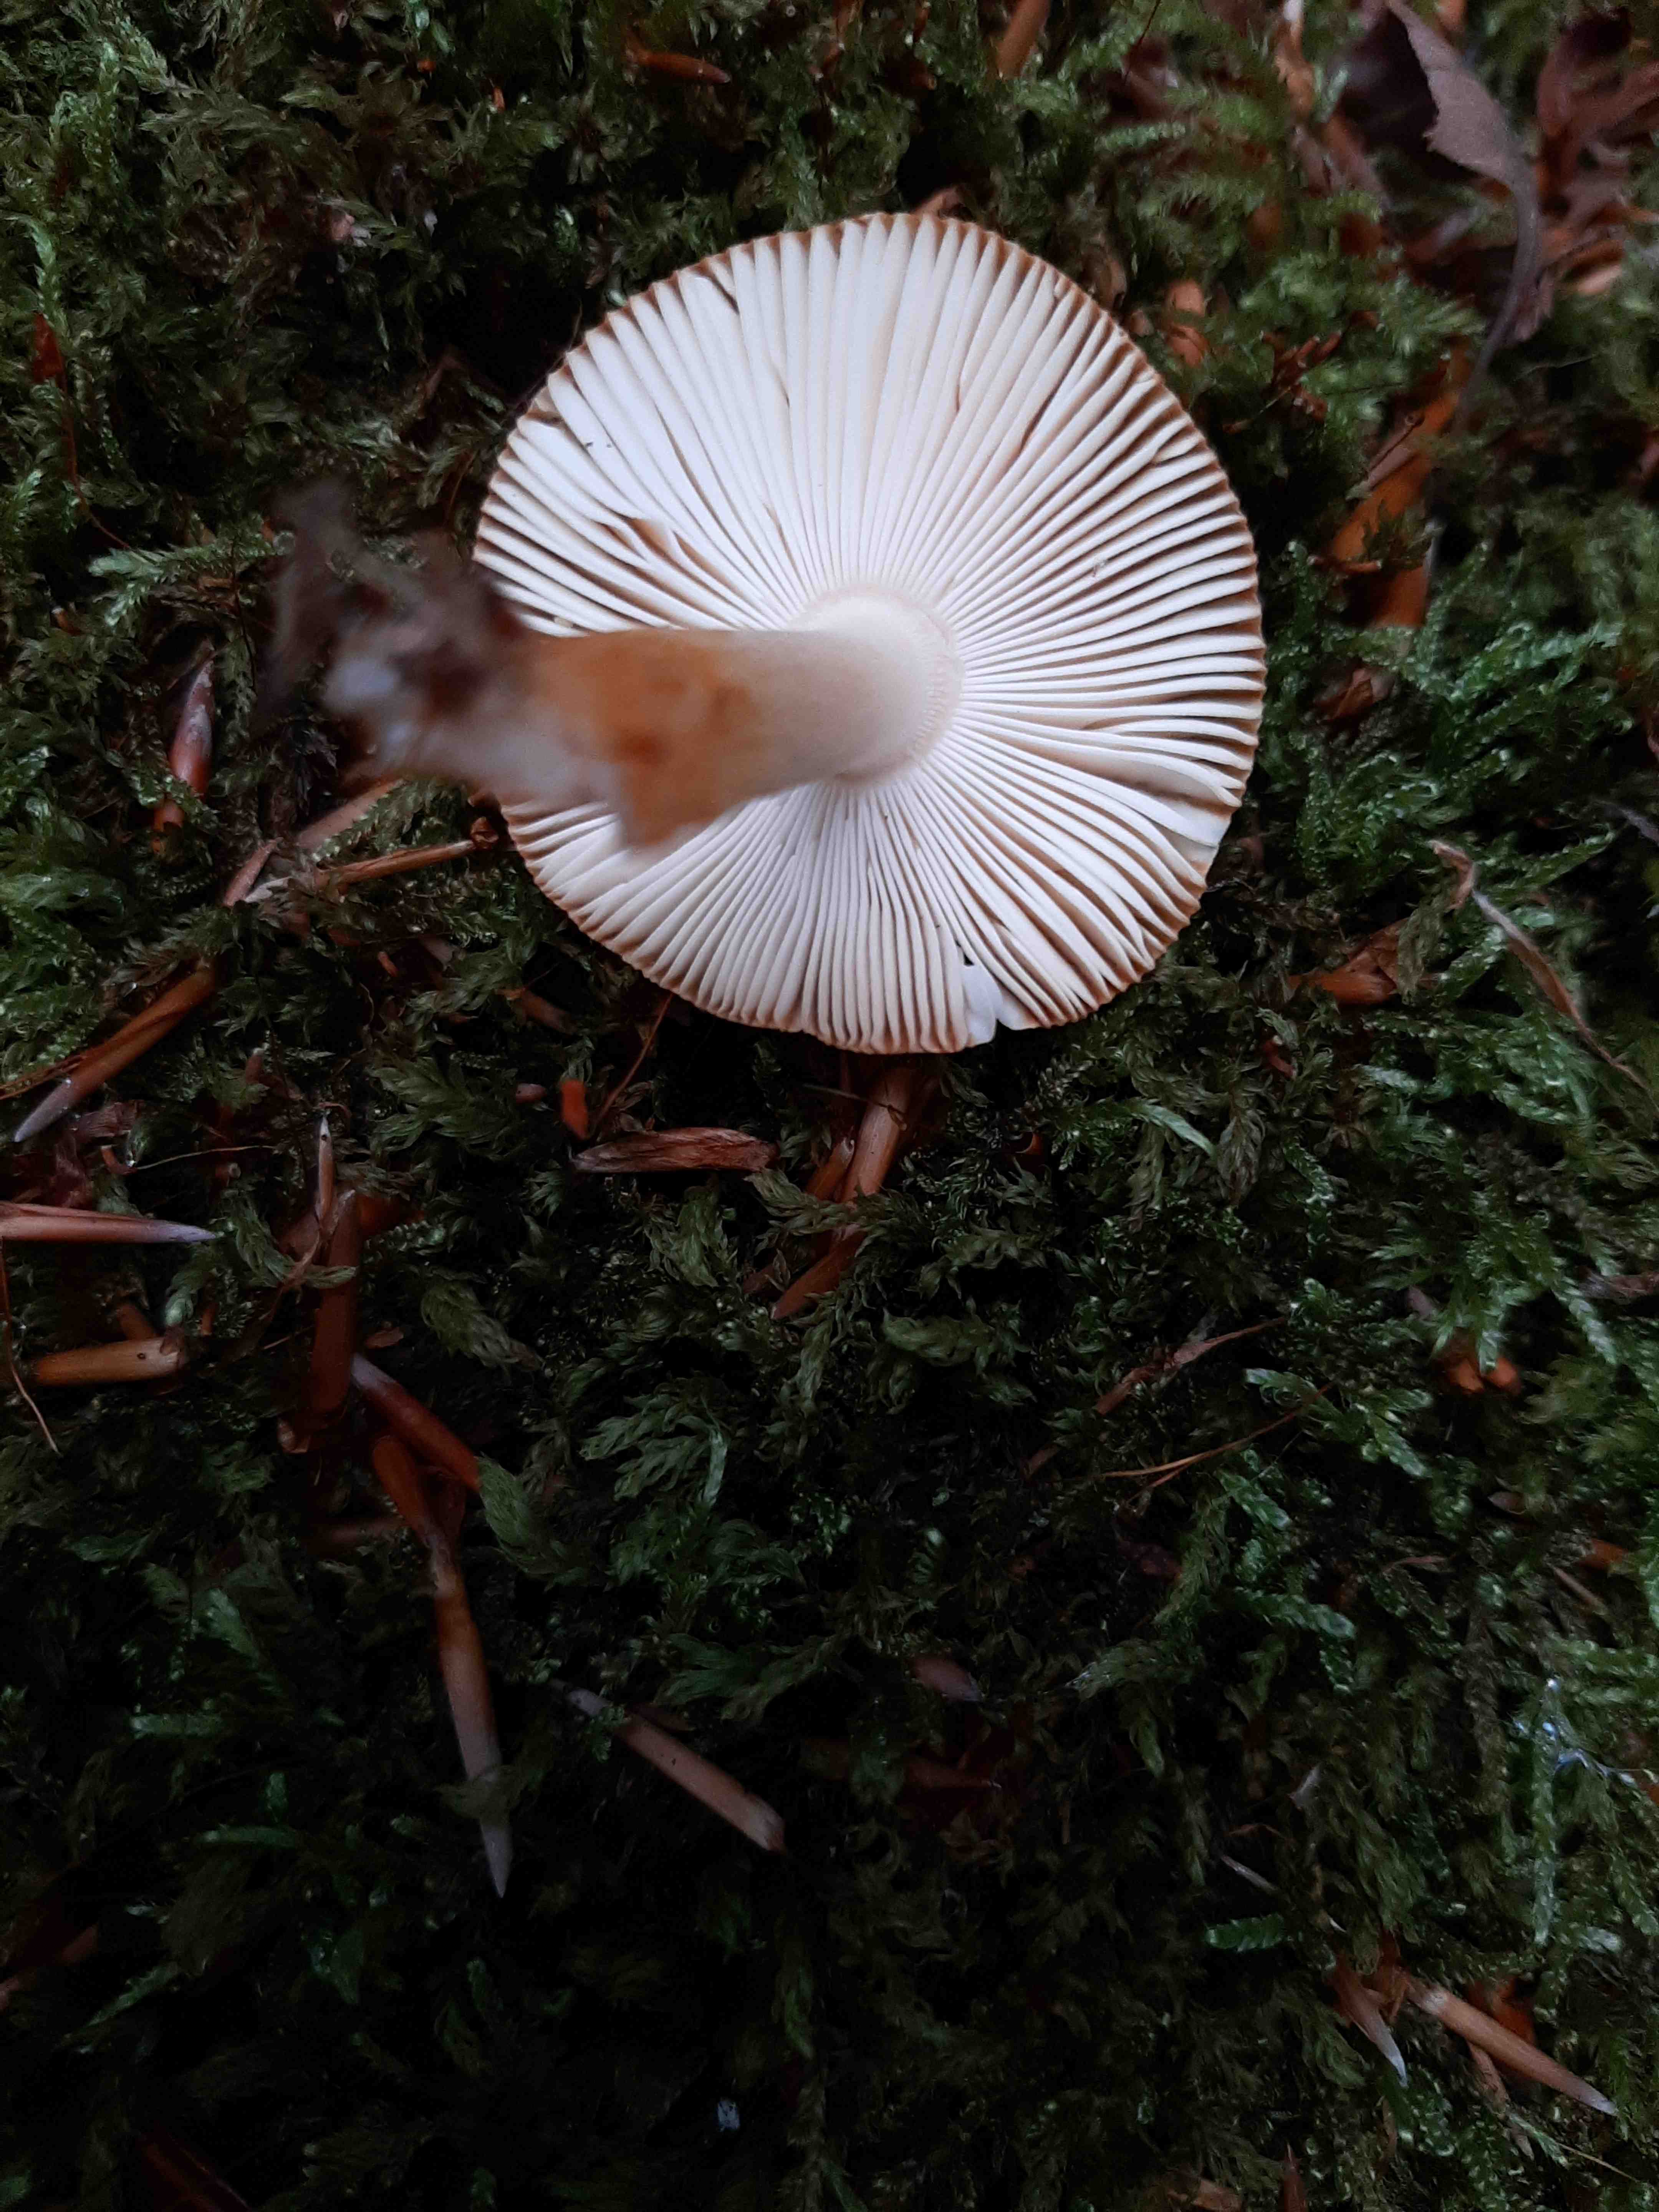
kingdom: Fungi
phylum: Basidiomycota
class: Agaricomycetes
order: Agaricales
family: Amanitaceae
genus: Amanita
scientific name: Amanita fulva
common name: brun kam-fluesvamp
